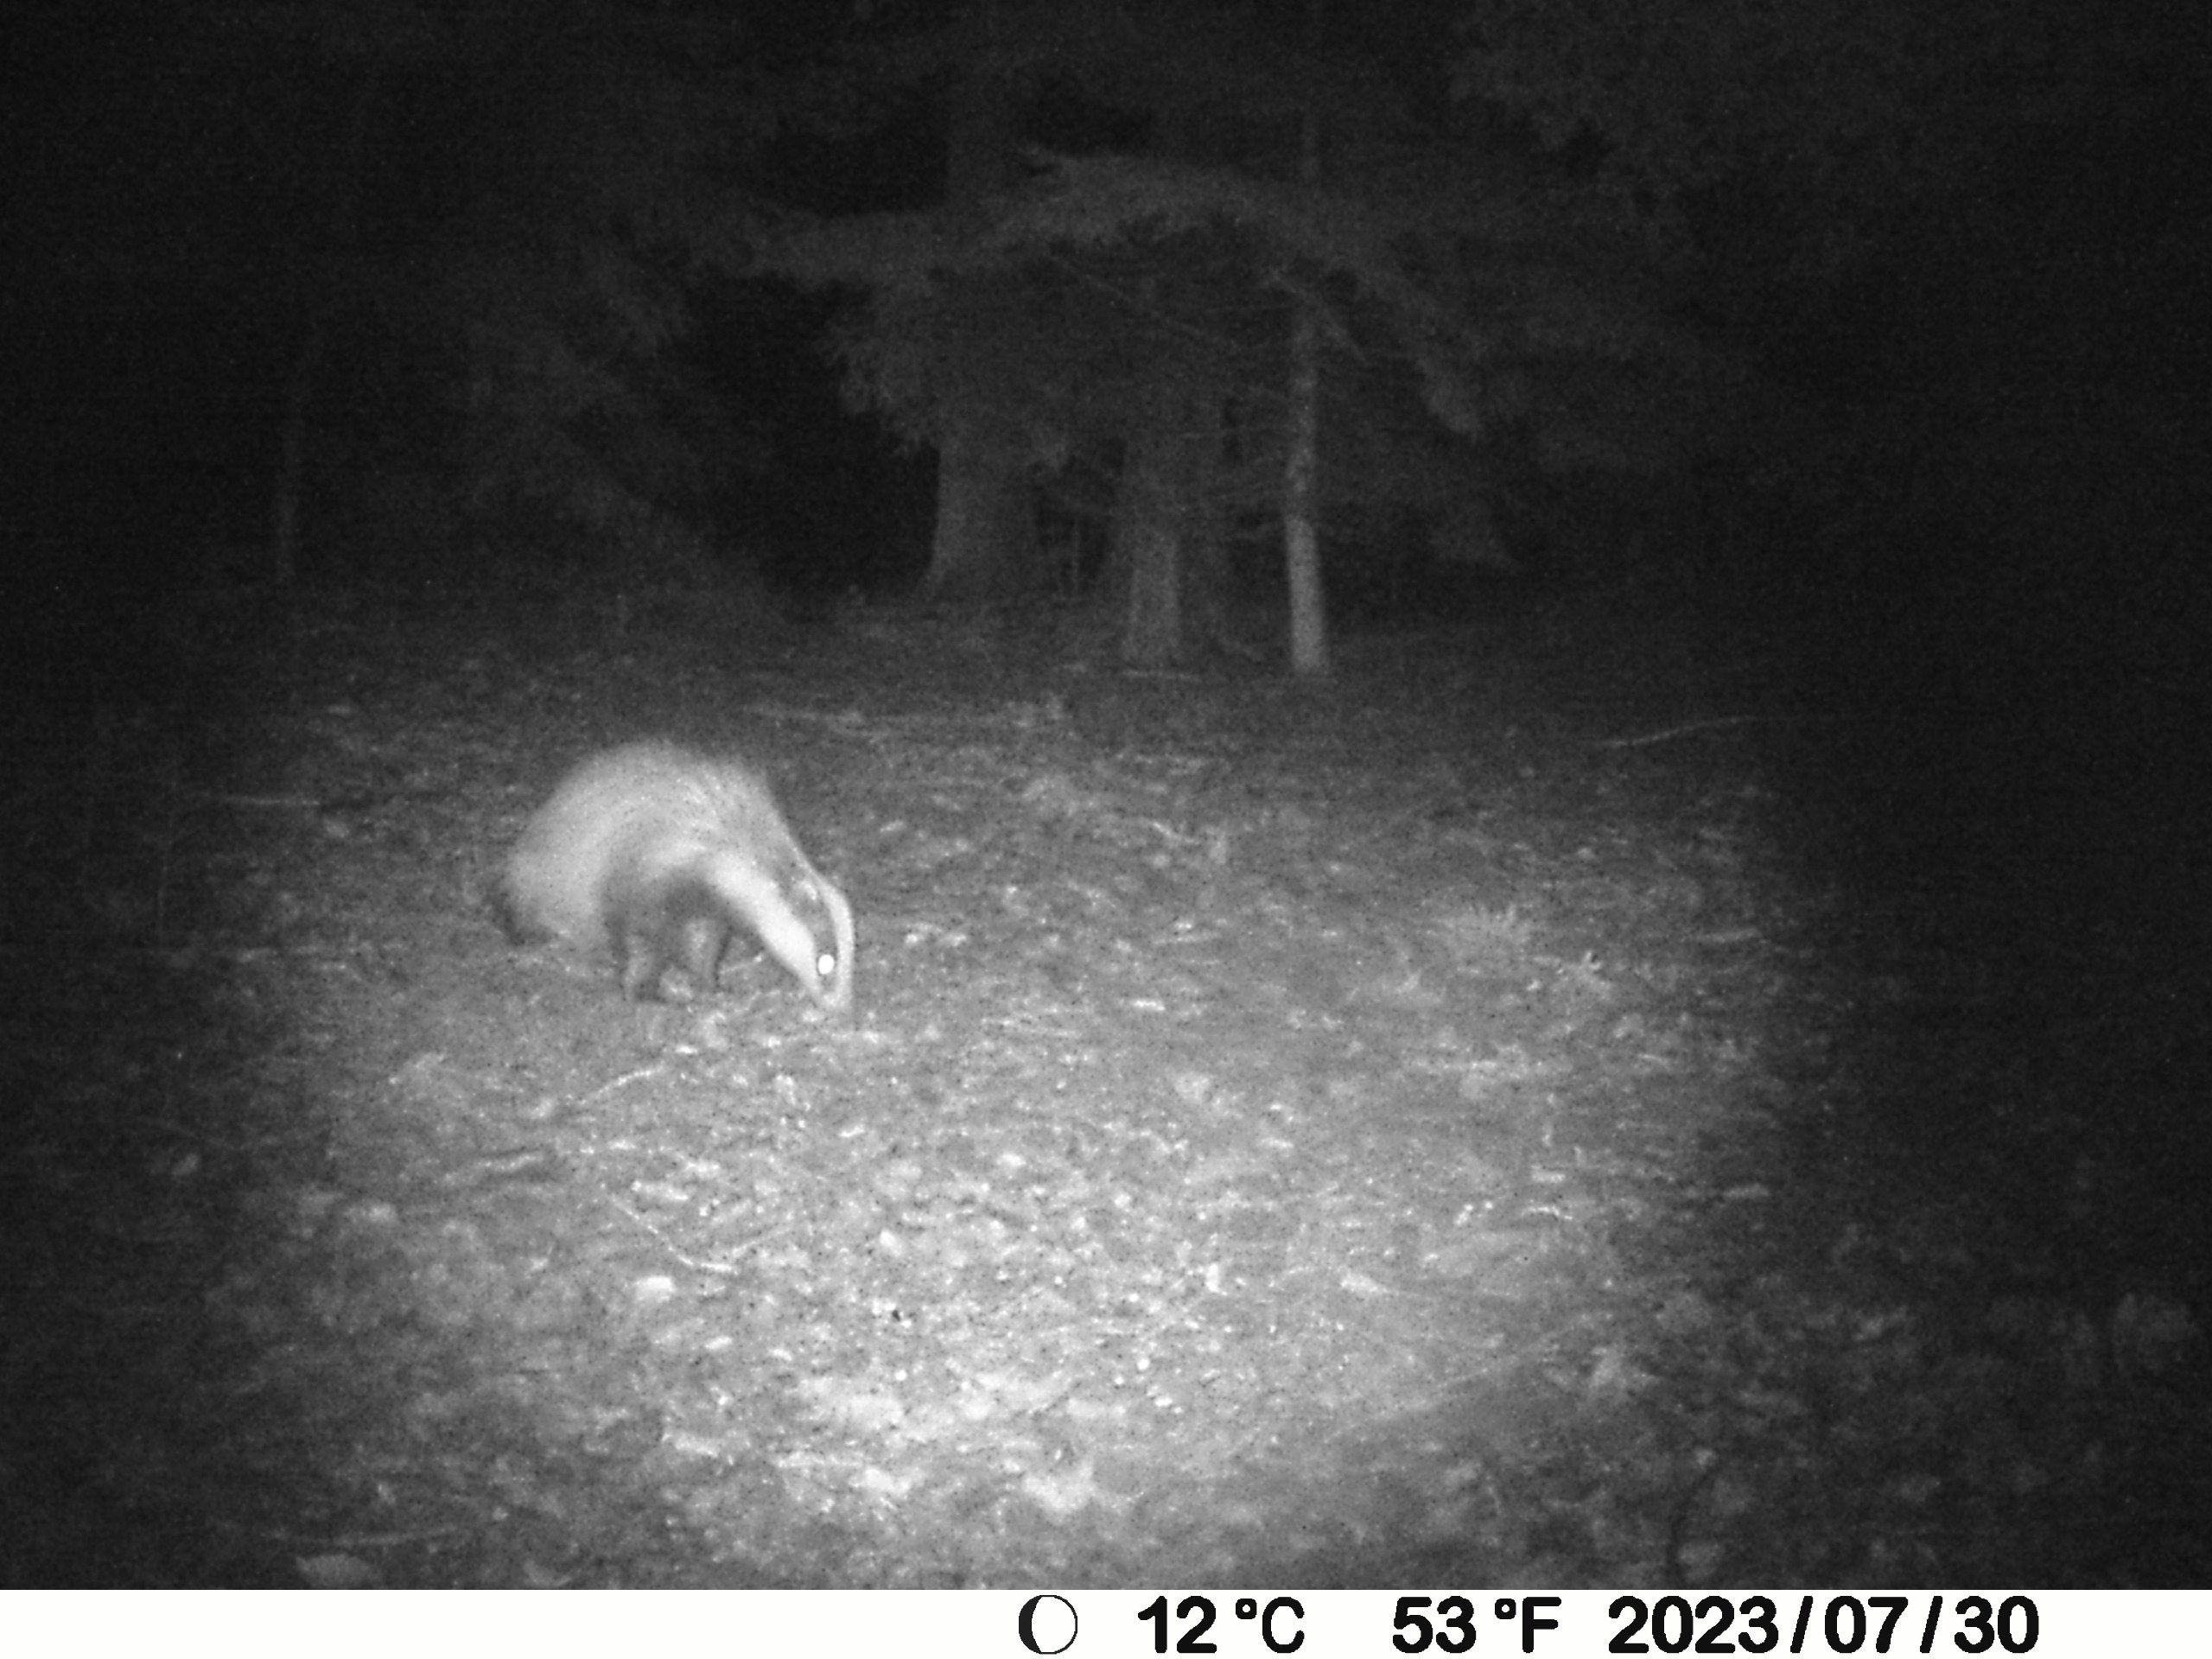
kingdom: Animalia
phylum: Chordata
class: Mammalia
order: Carnivora
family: Mustelidae
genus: Meles
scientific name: Meles meles
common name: Grævling
